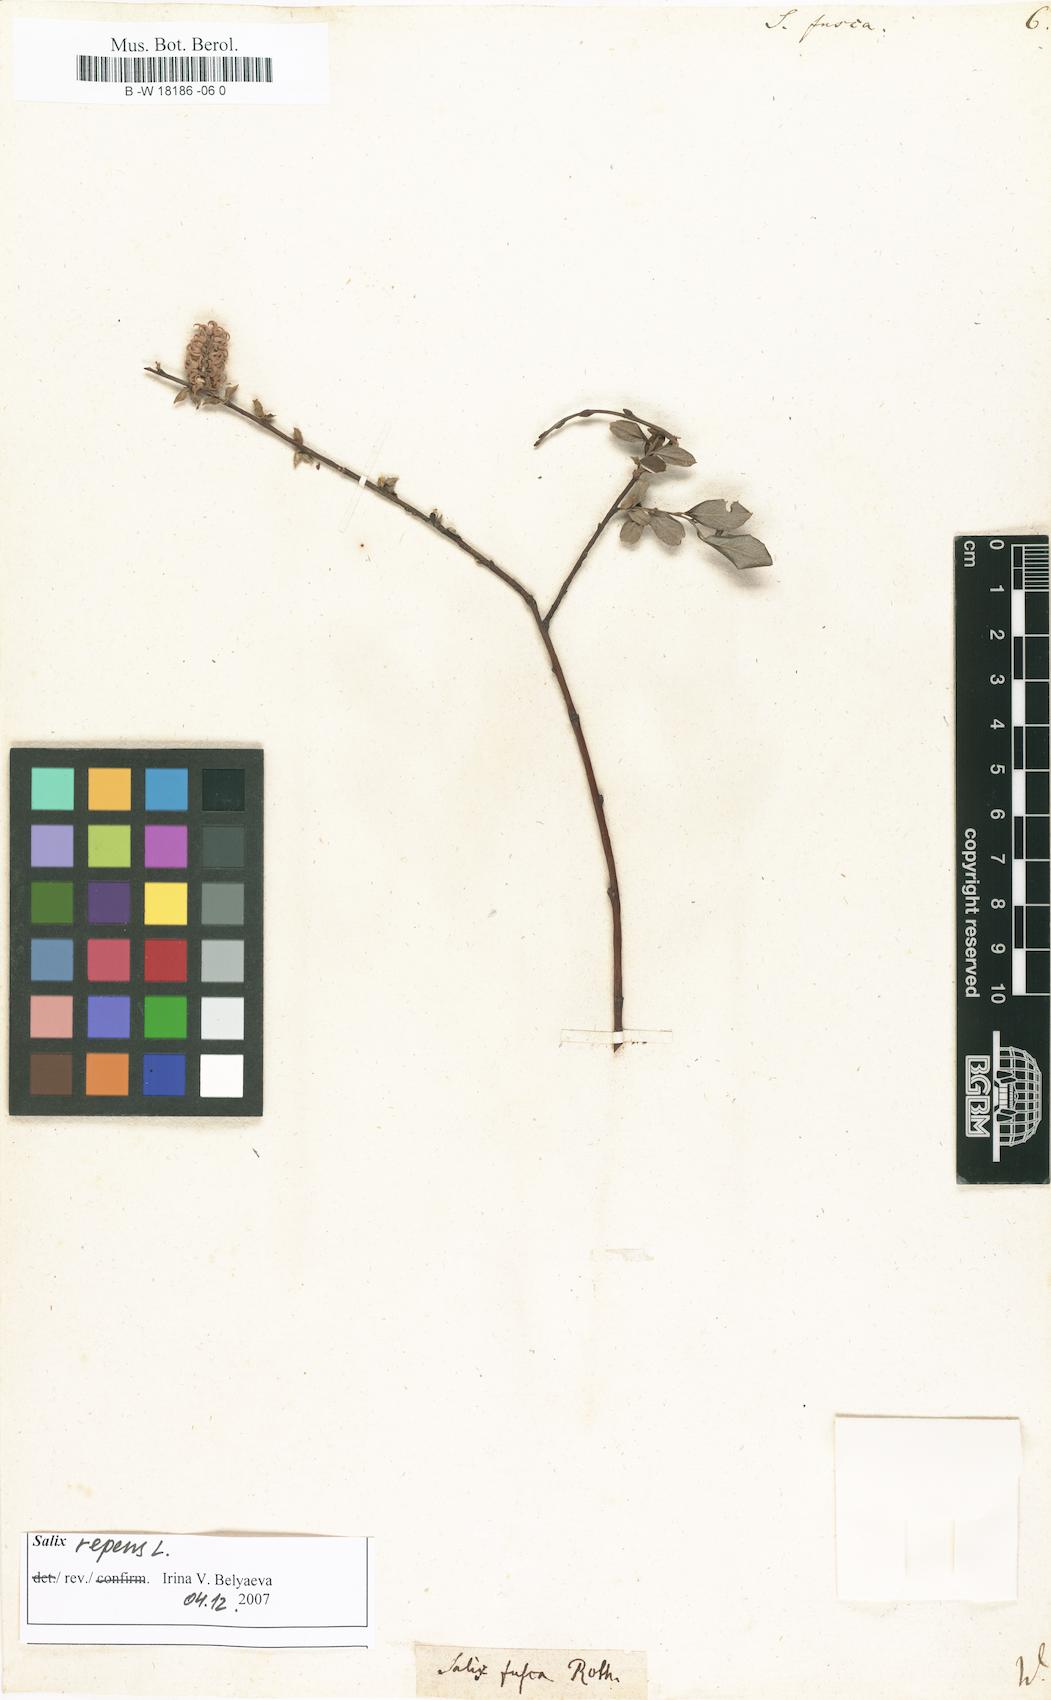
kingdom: Plantae
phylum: Tracheophyta
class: Magnoliopsida
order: Malpighiales
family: Salicaceae
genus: Salix
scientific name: Salix repens
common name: Creeping willow
